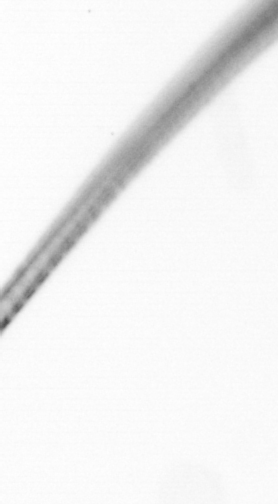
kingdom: Chromista
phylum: Ochrophyta
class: Bacillariophyceae
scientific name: Bacillariophyceae
